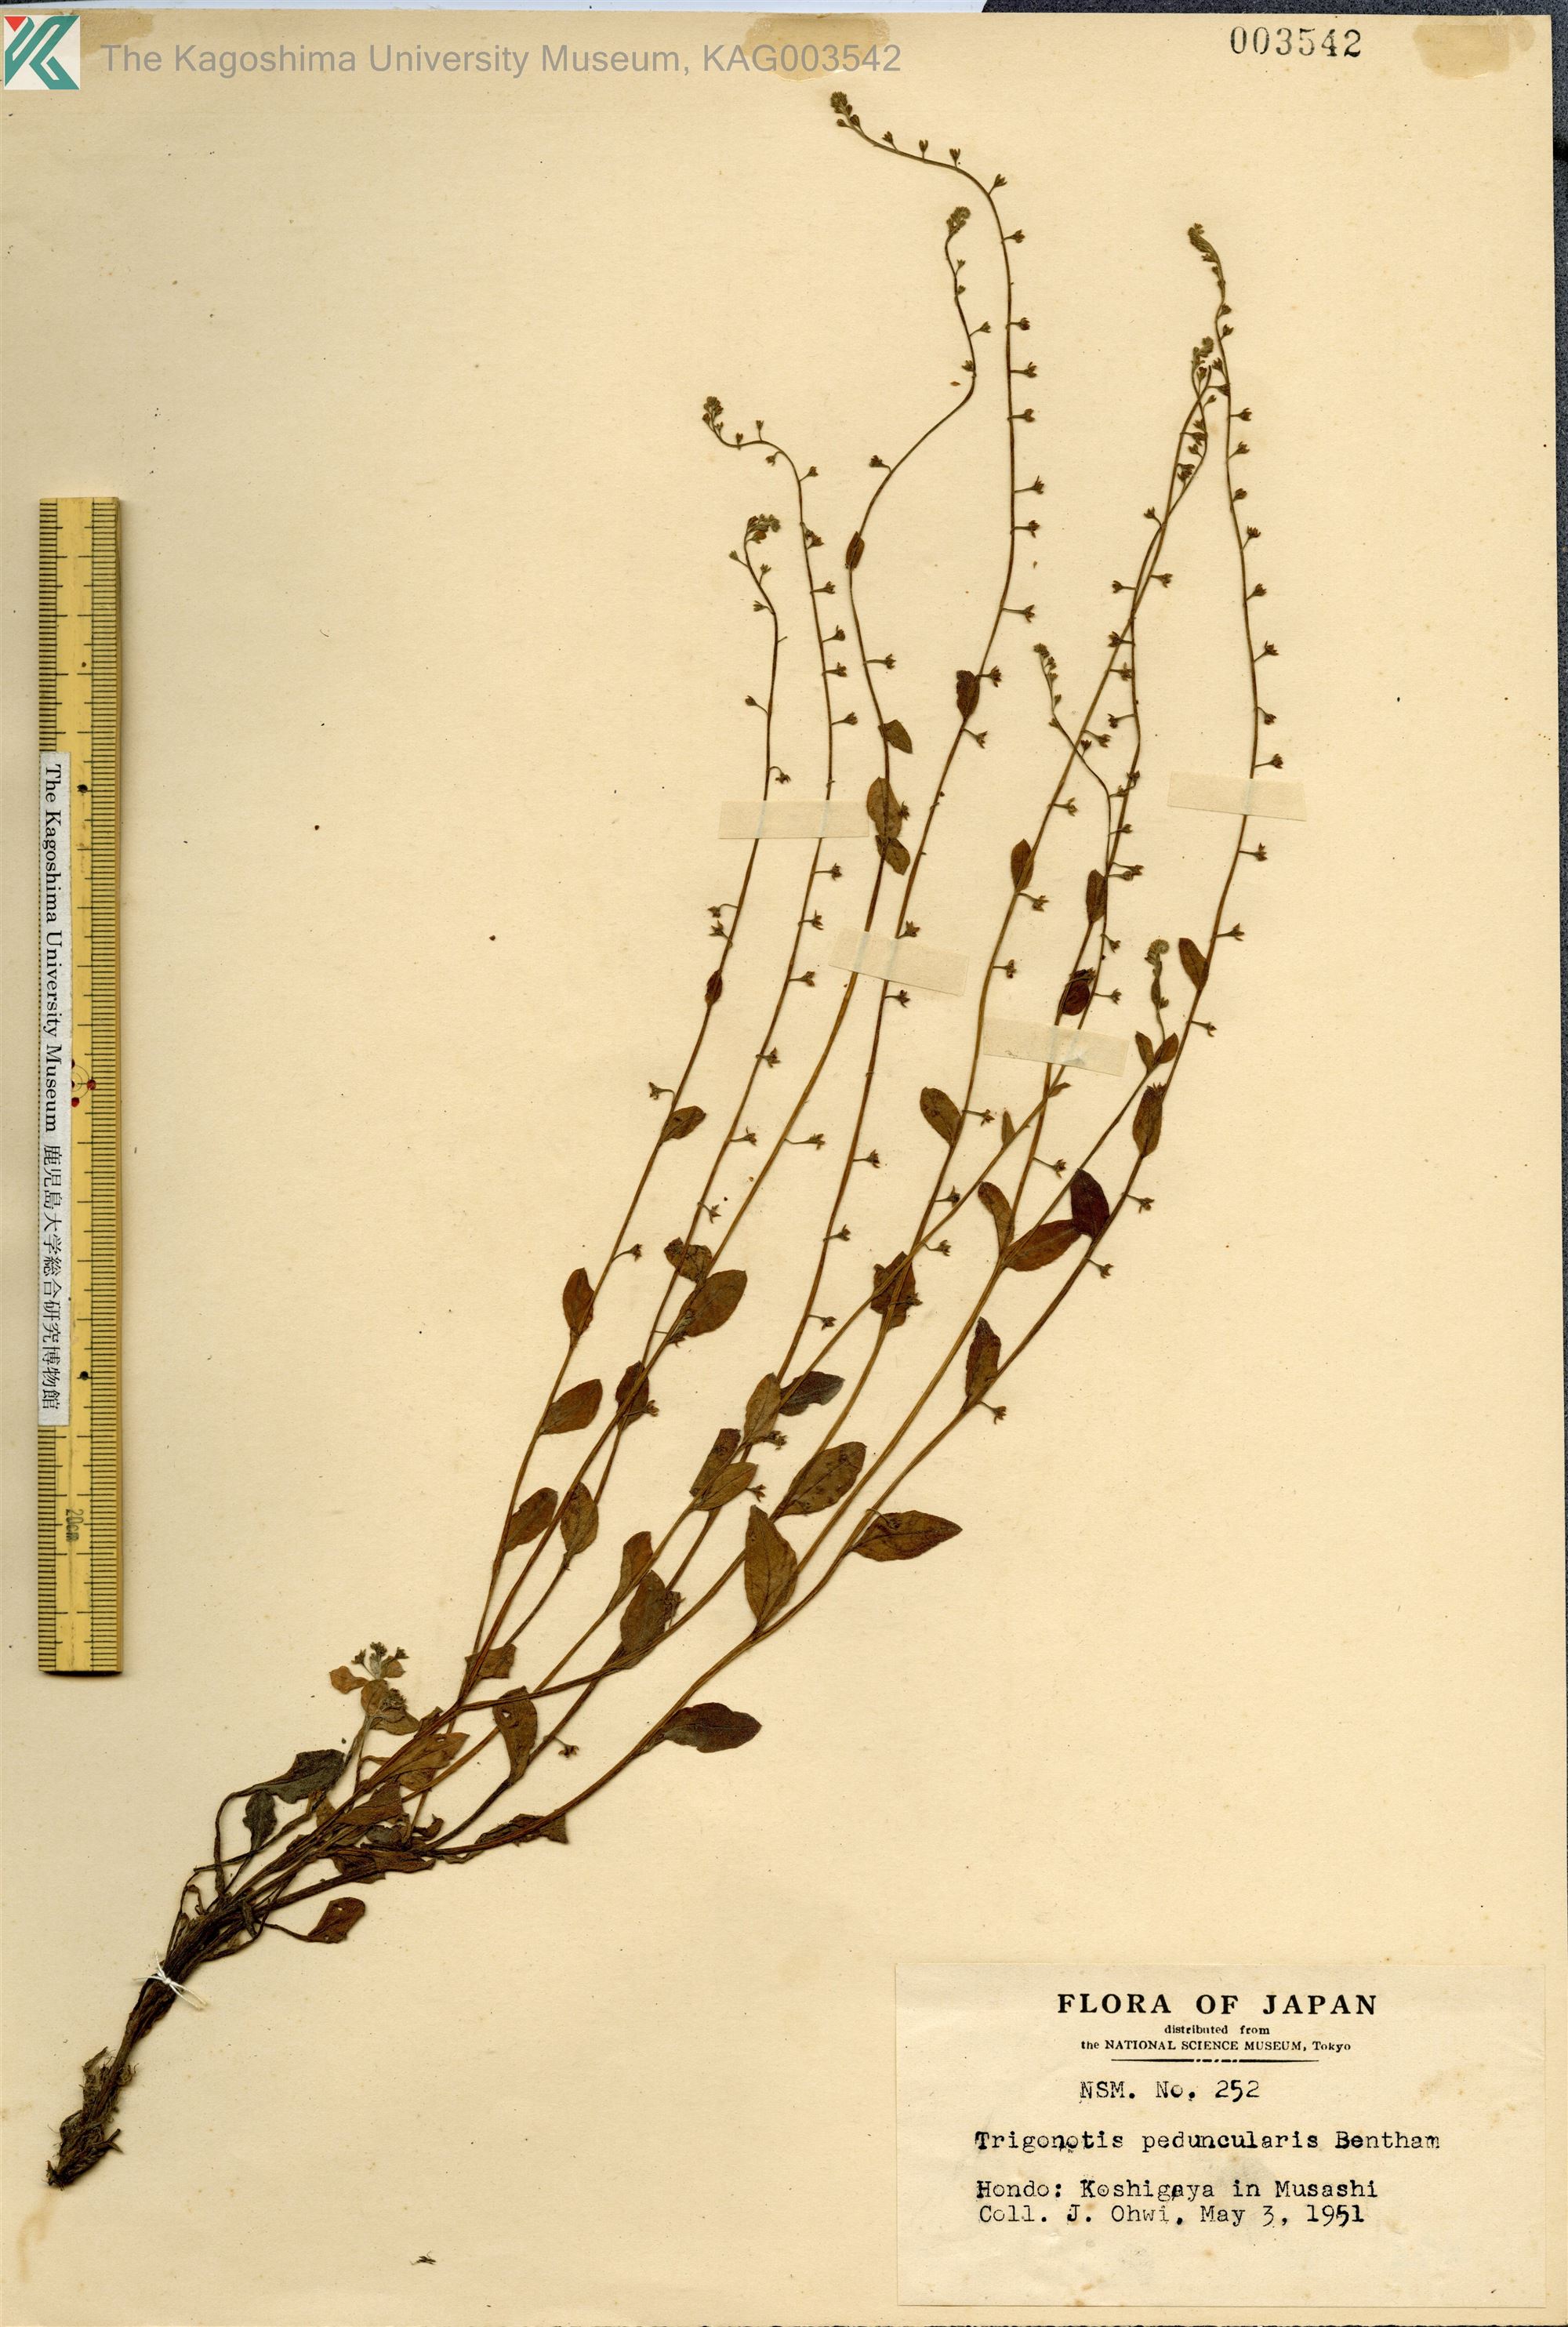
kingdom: Plantae
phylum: Tracheophyta
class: Magnoliopsida
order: Boraginales
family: Boraginaceae
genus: Trigonotis
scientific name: Trigonotis peduncularis
